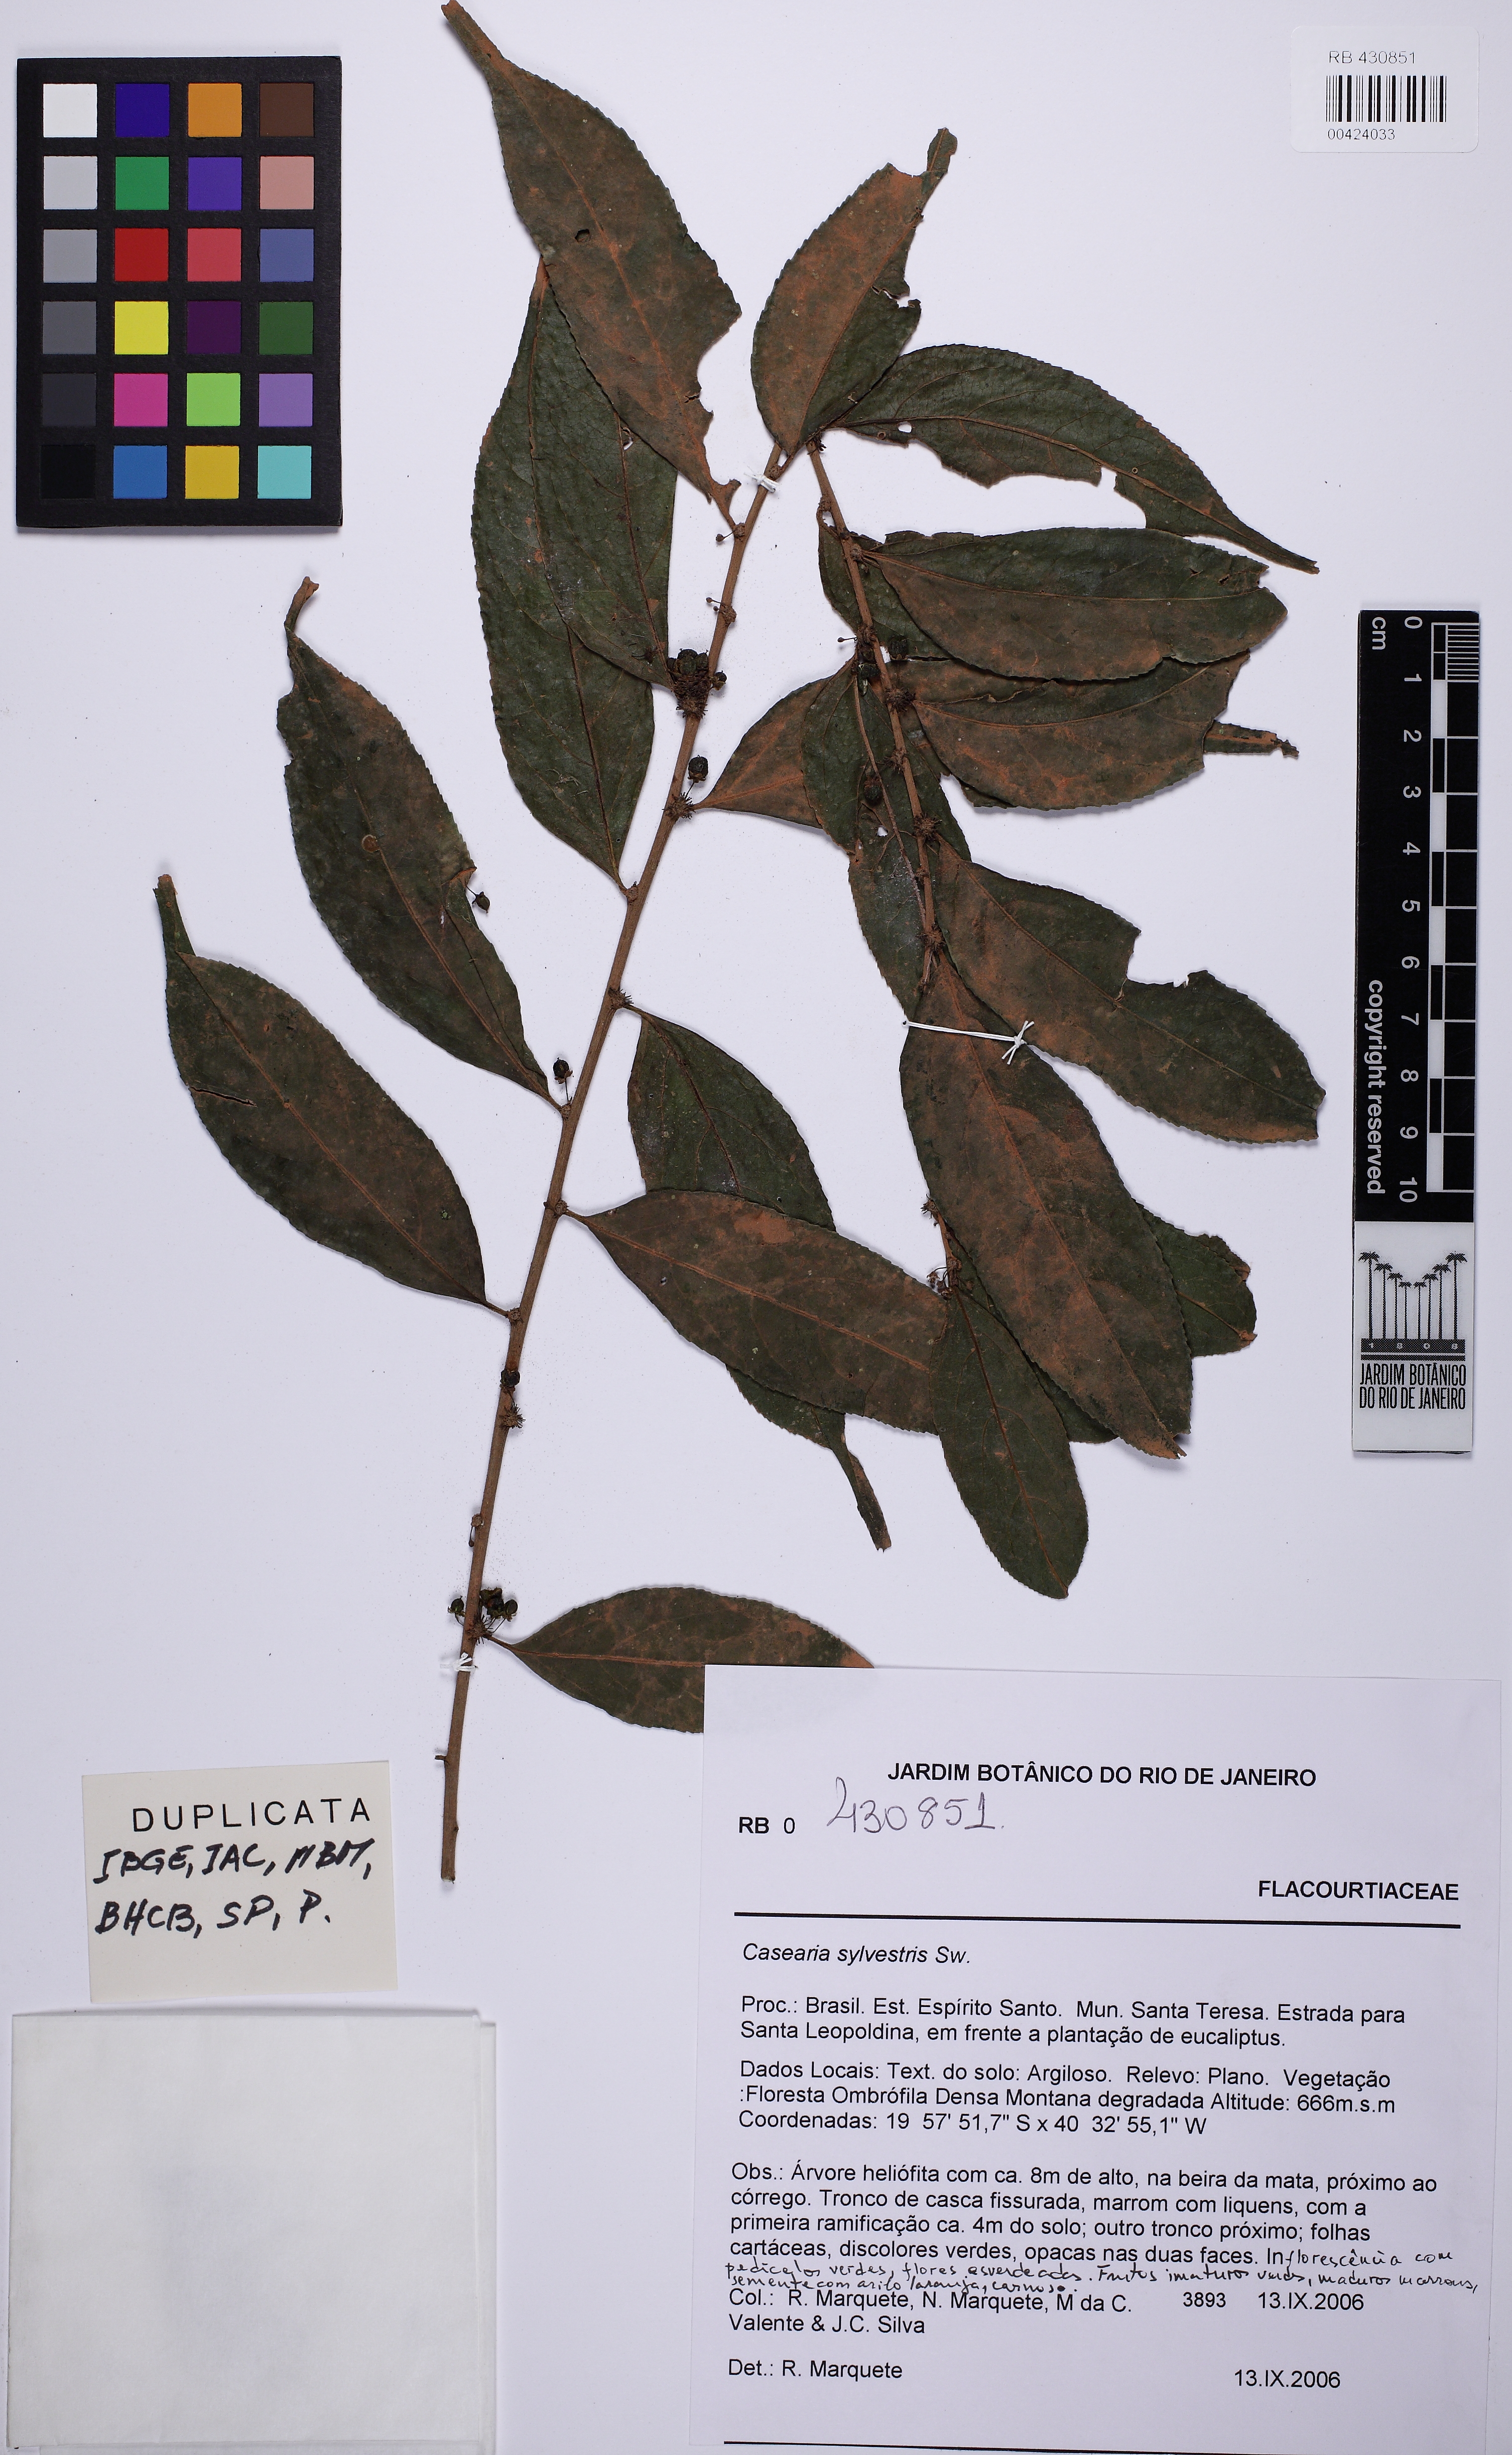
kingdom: Plantae
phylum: Tracheophyta
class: Magnoliopsida
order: Malpighiales
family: Salicaceae
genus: Casearia
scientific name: Casearia sylvestris
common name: Wild sage
